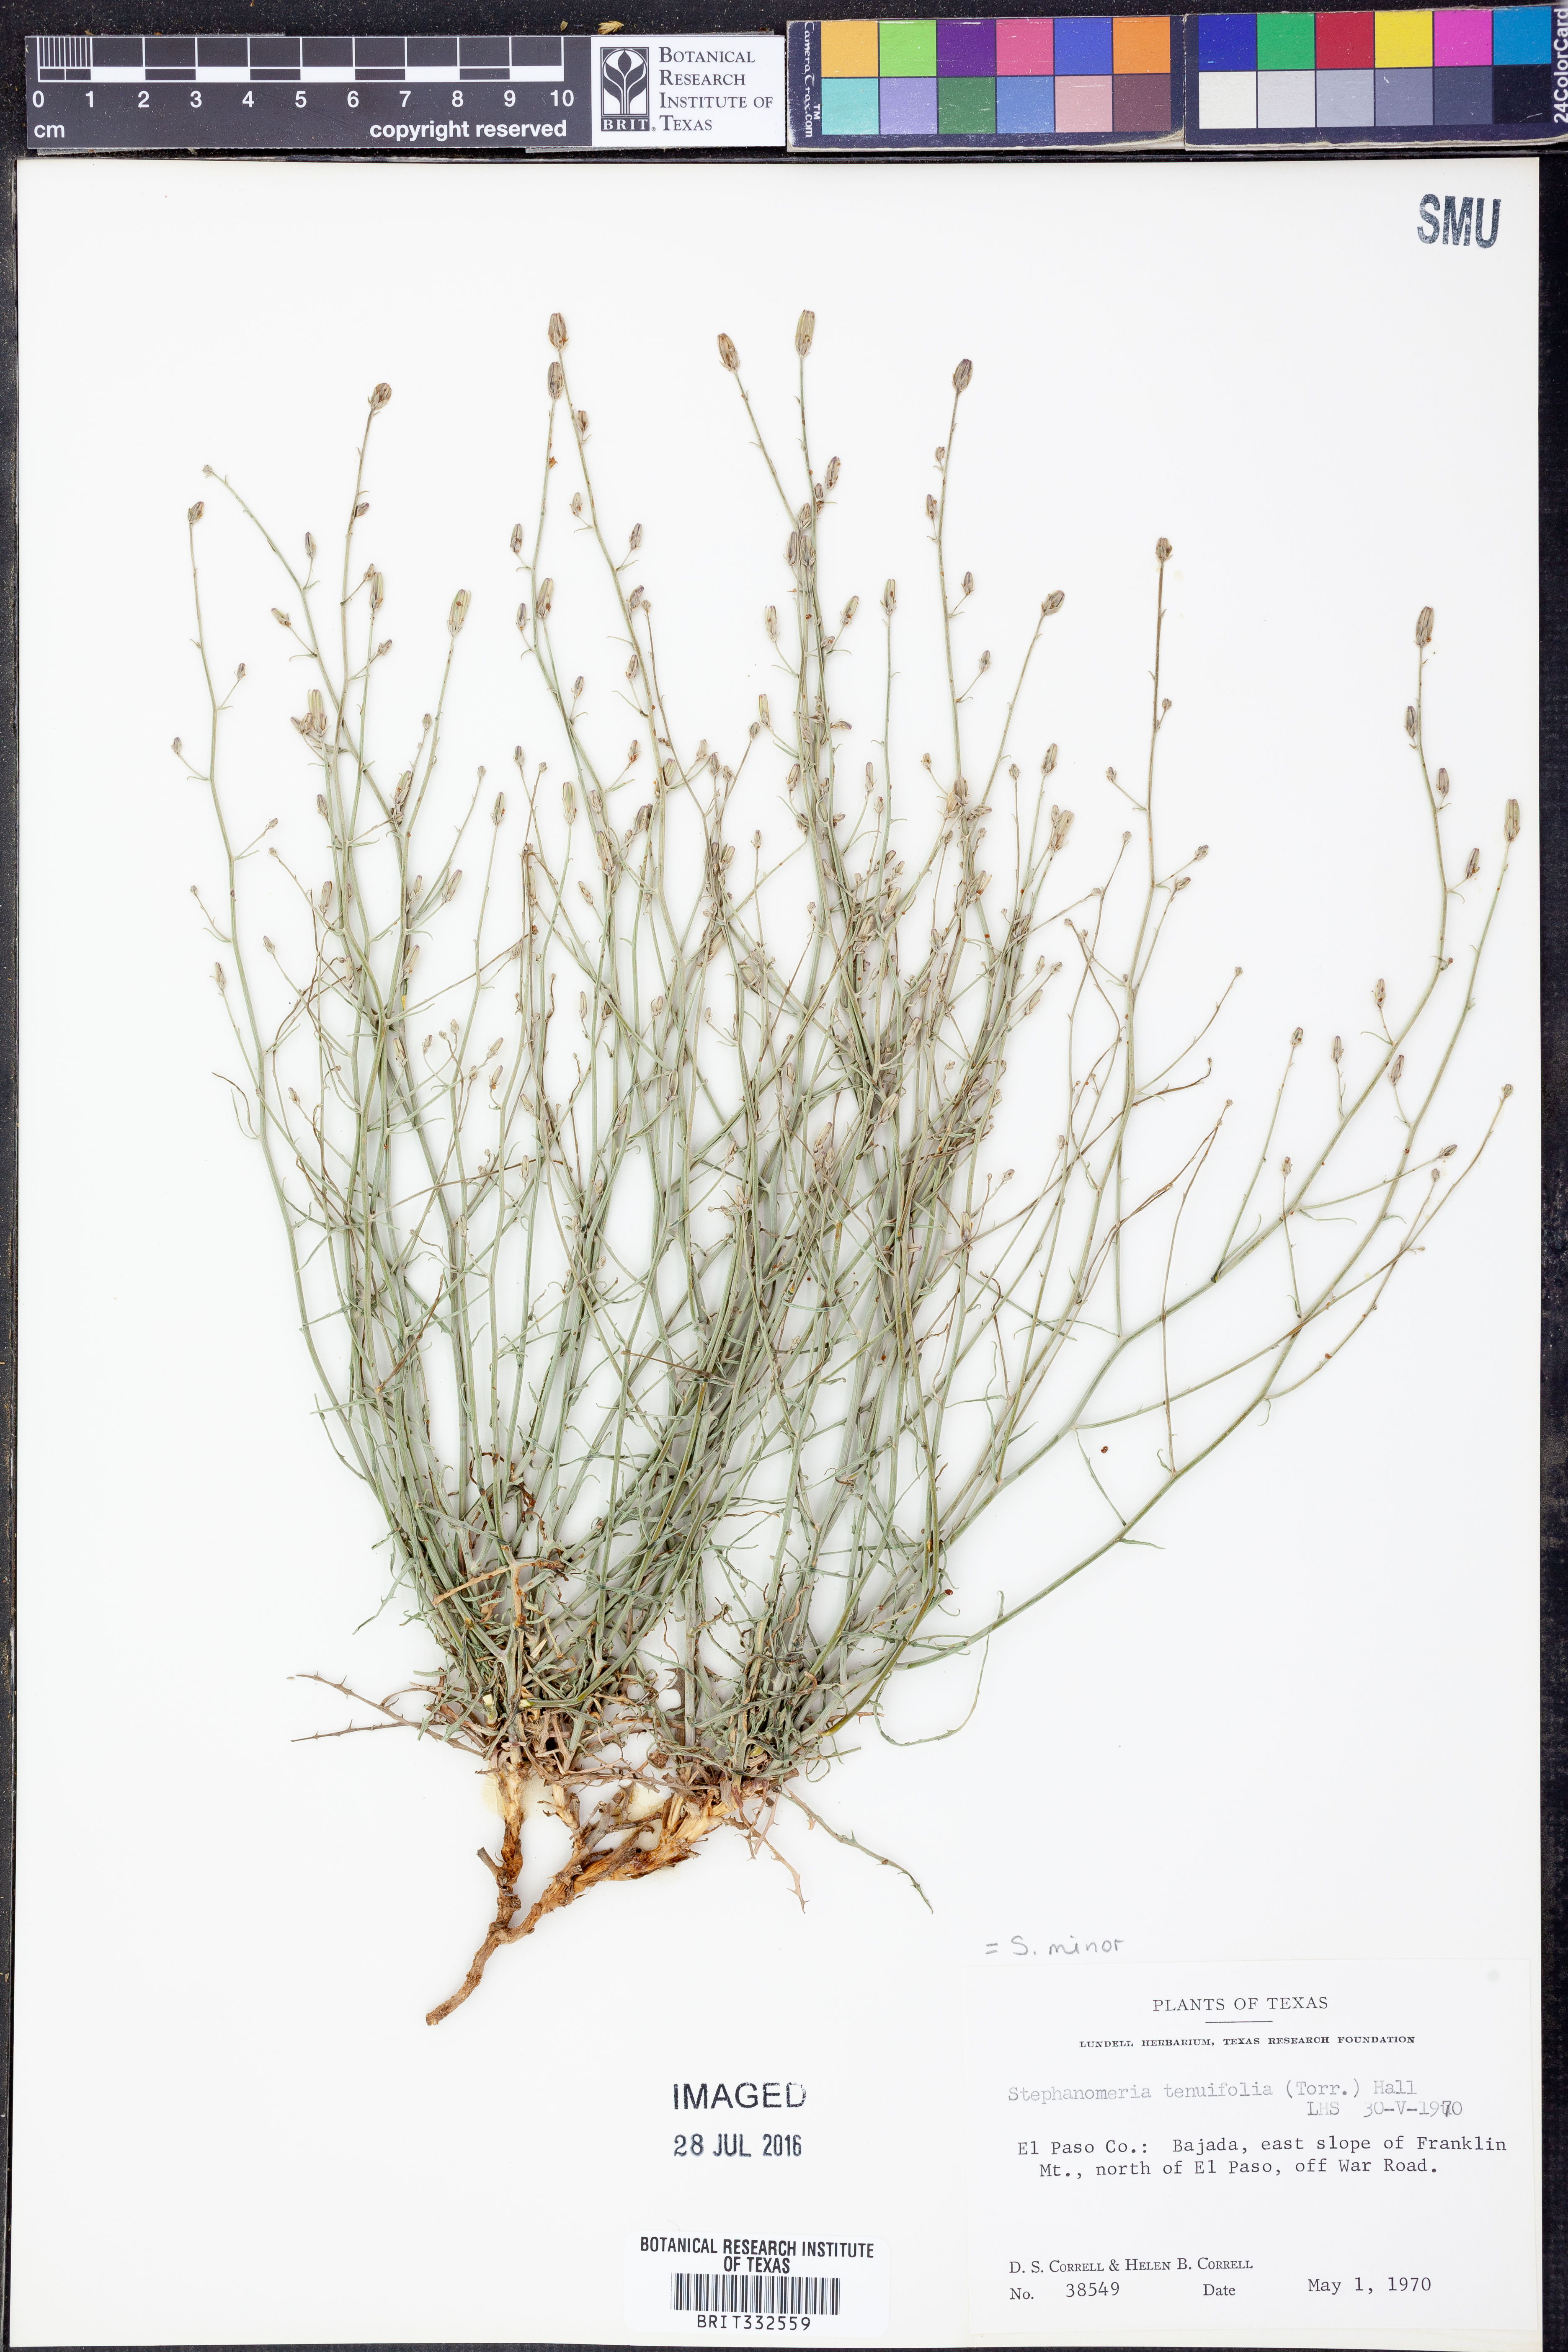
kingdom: Plantae
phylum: Tracheophyta
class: Magnoliopsida
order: Asterales
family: Asteraceae
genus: Stephanomeria
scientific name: Stephanomeria tenuifolia
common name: Slender wirelettuce
